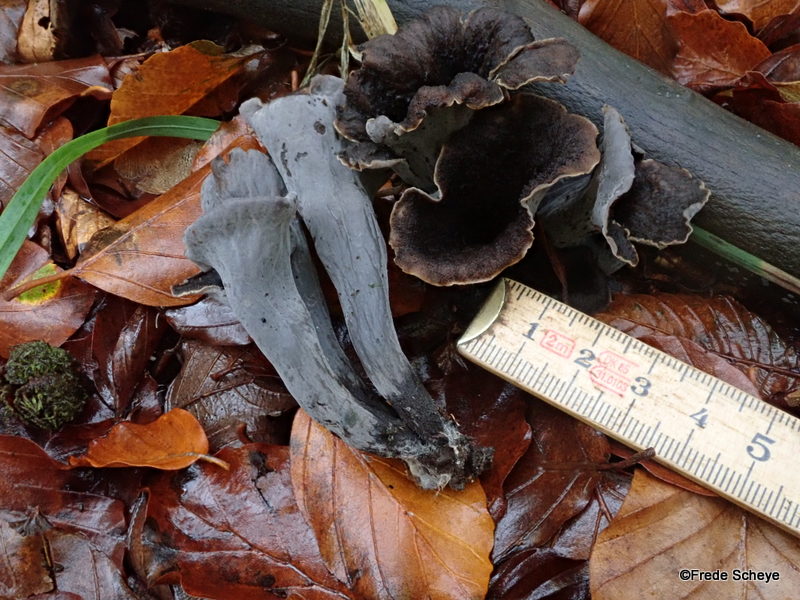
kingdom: Fungi
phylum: Basidiomycota
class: Agaricomycetes
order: Cantharellales
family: Hydnaceae
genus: Craterellus
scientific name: Craterellus cornucopioides
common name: trompetsvamp
